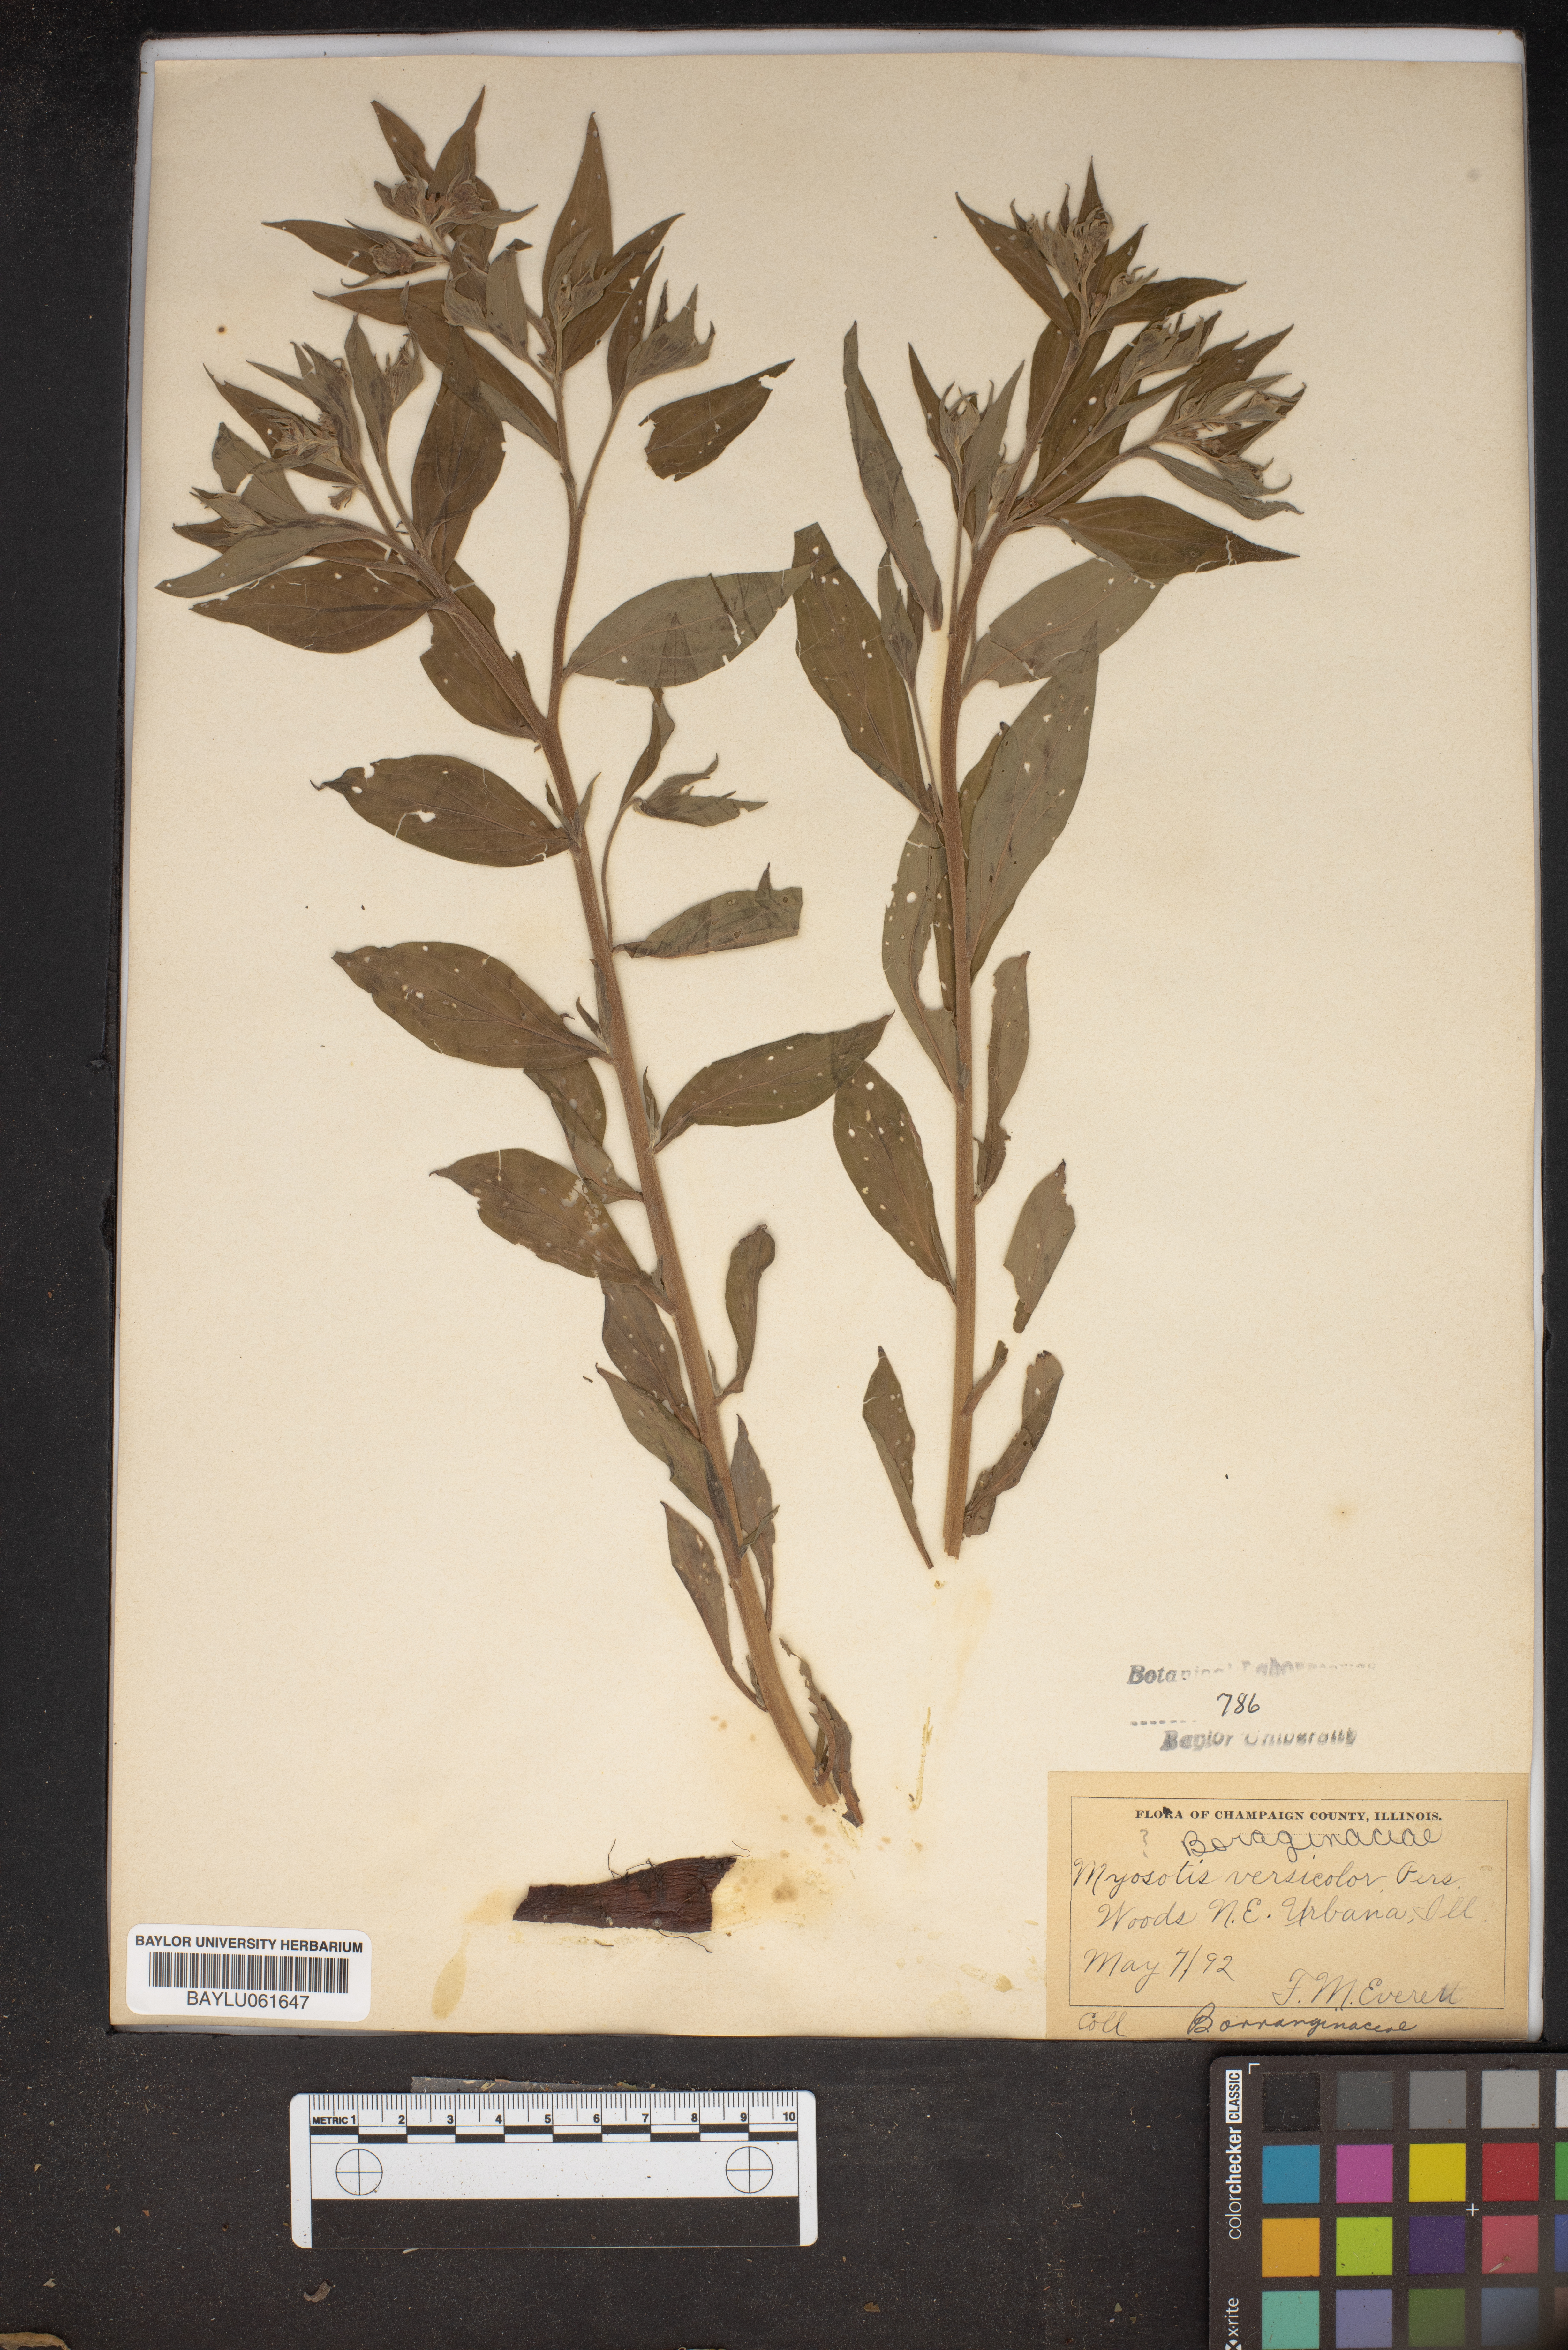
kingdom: Plantae
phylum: Tracheophyta
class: Magnoliopsida
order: Boraginales
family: Boraginaceae
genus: Myosotis
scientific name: Myosotis discolor
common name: Changing forget-me-not
